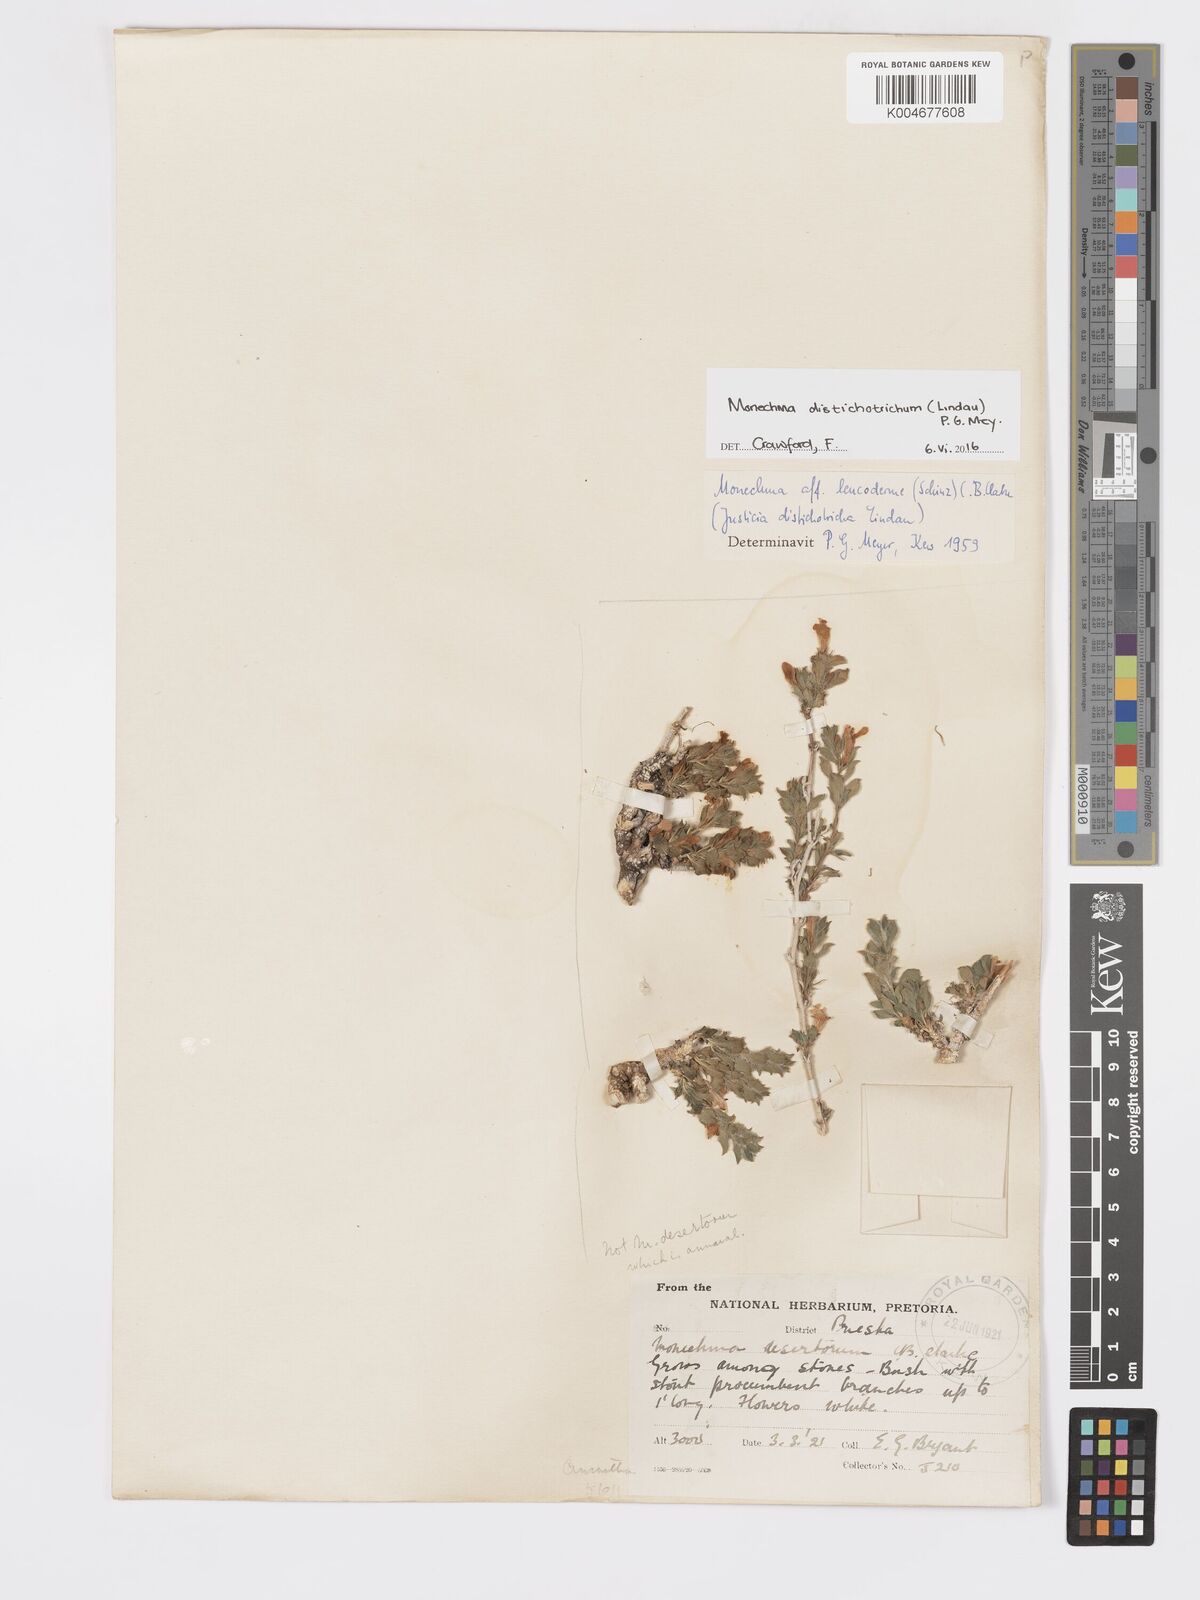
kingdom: Plantae
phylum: Tracheophyta
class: Magnoliopsida
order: Lamiales
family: Acanthaceae
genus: Pogonospermum
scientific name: Pogonospermum
